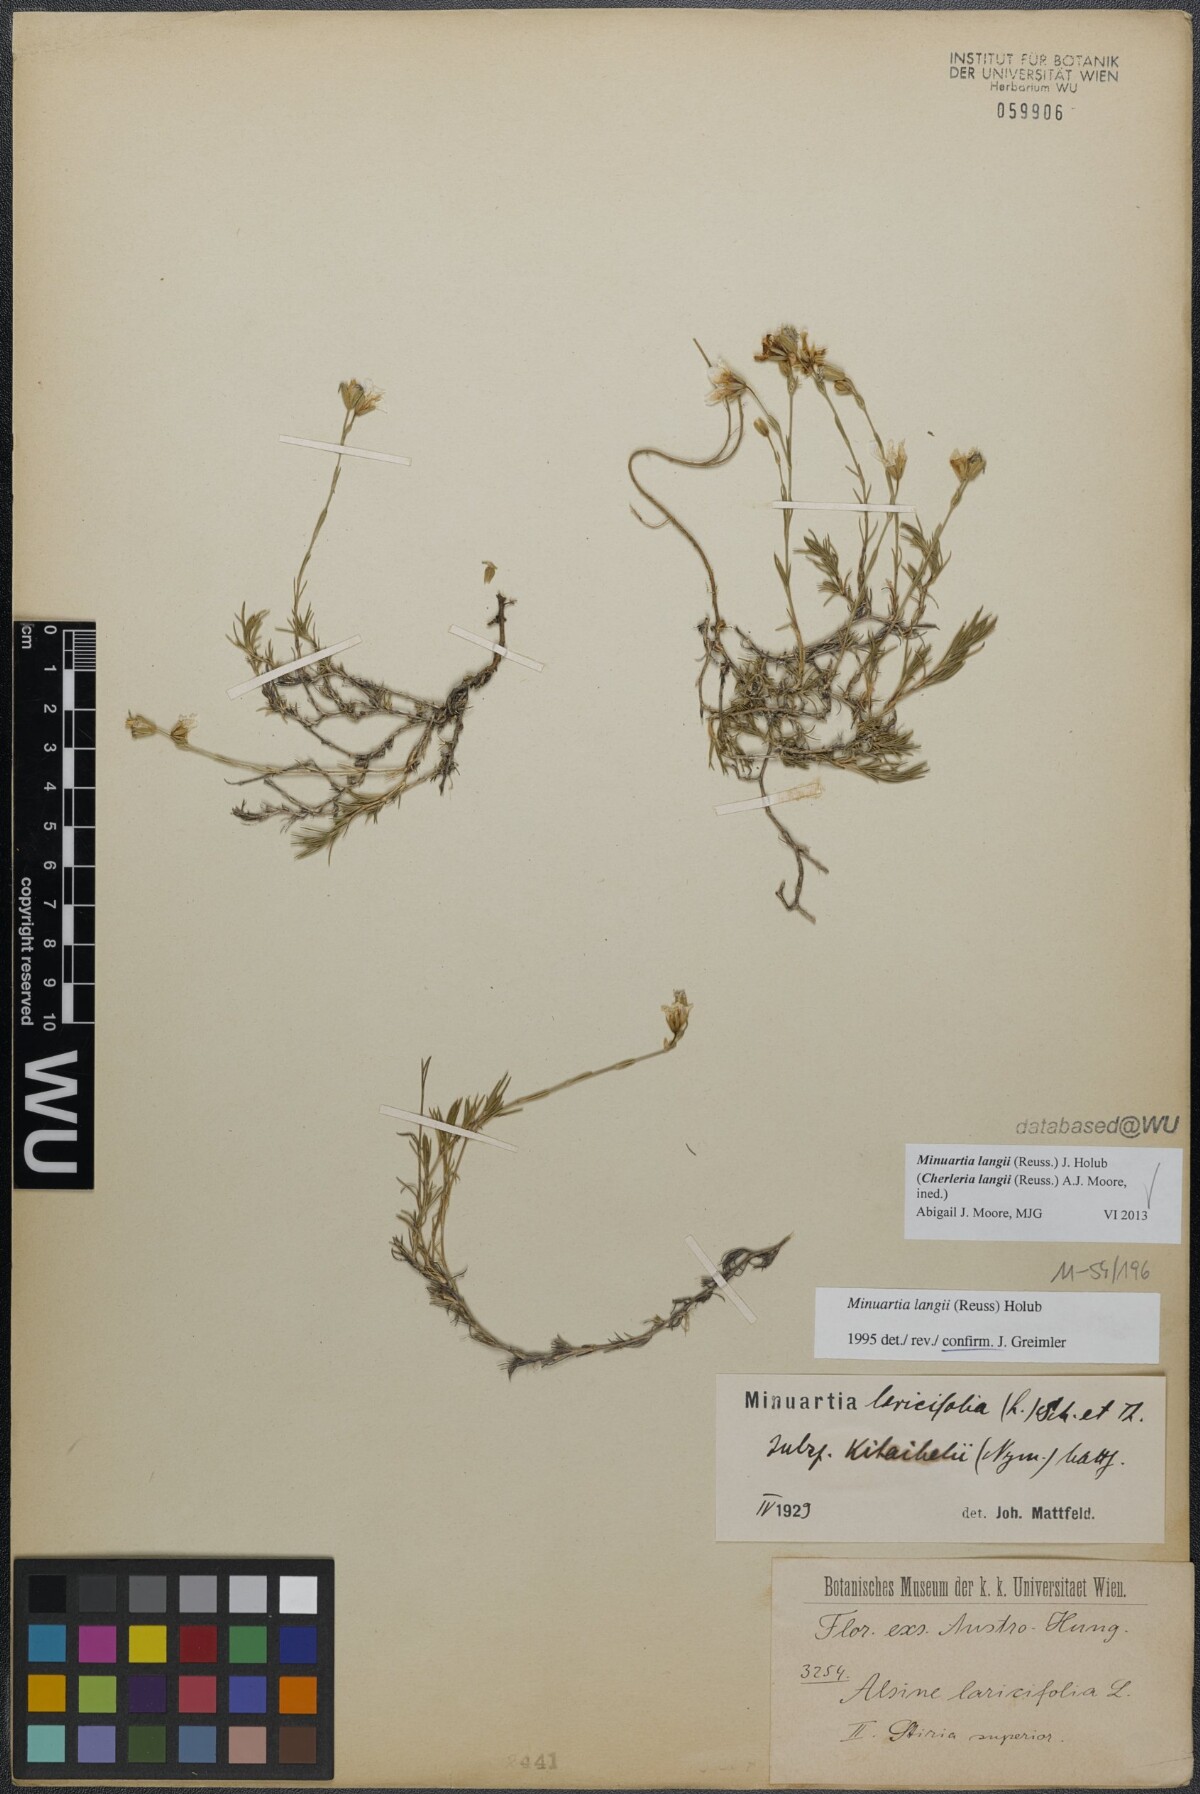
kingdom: Plantae
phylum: Tracheophyta
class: Magnoliopsida
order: Caryophyllales
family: Caryophyllaceae
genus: Cherleria
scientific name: Cherleria langii
